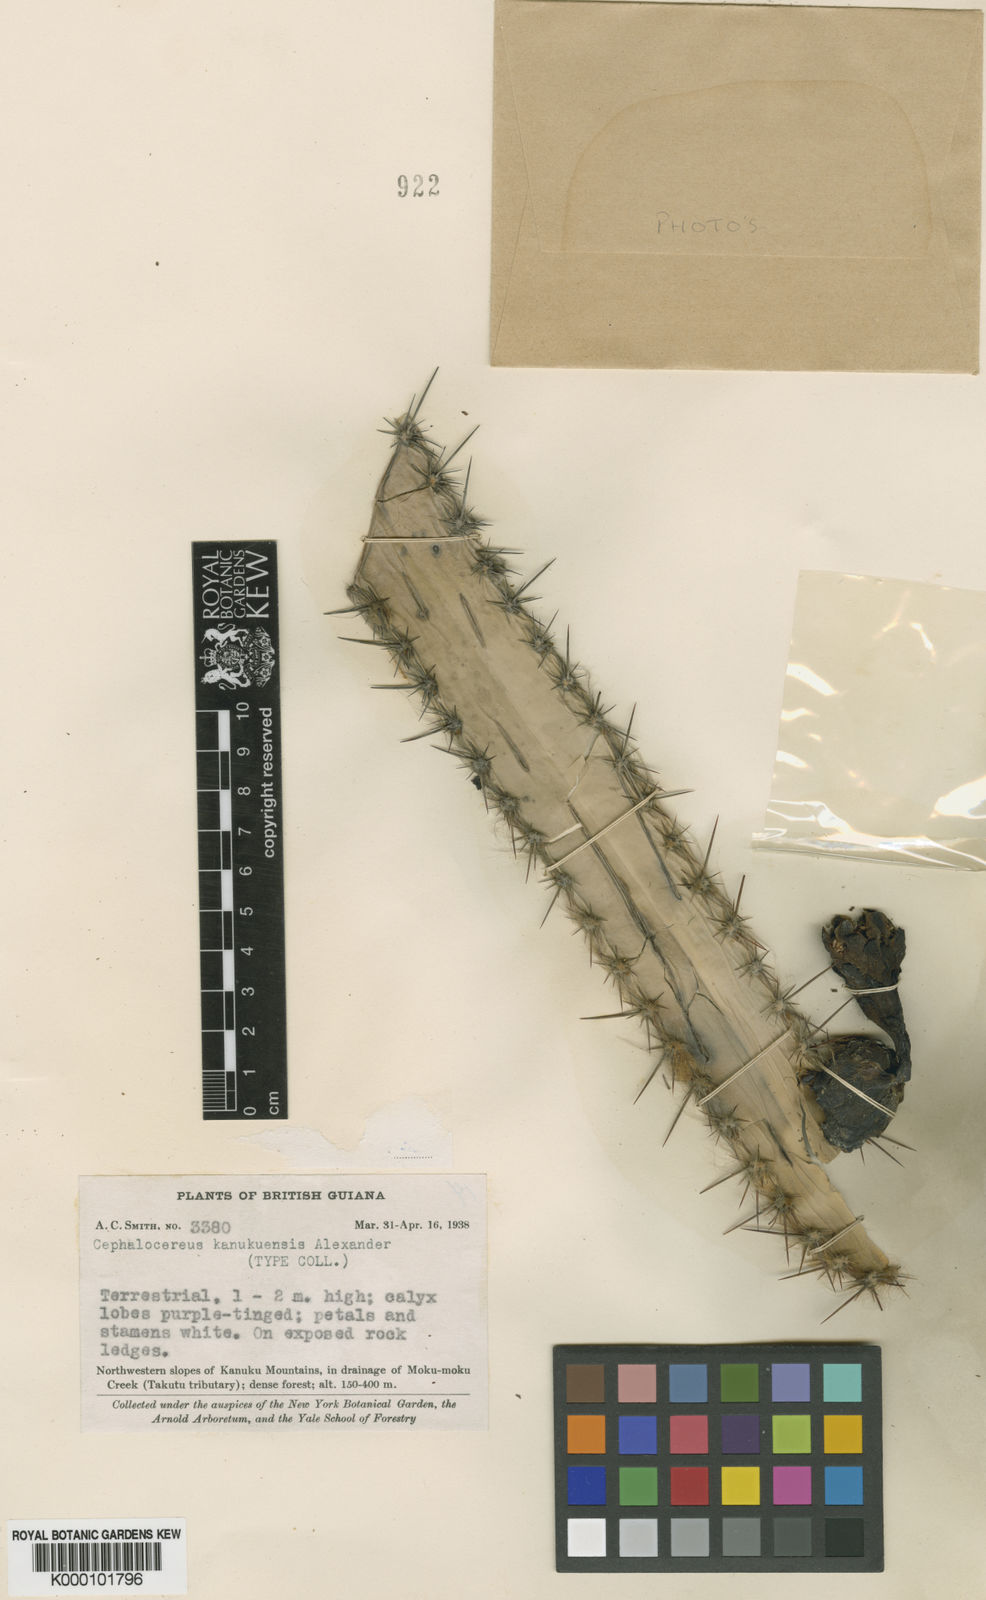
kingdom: Plantae
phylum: Tracheophyta
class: Magnoliopsida
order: Caryophyllales
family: Cactaceae
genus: Pilosocereus
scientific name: Pilosocereus oligolepis
